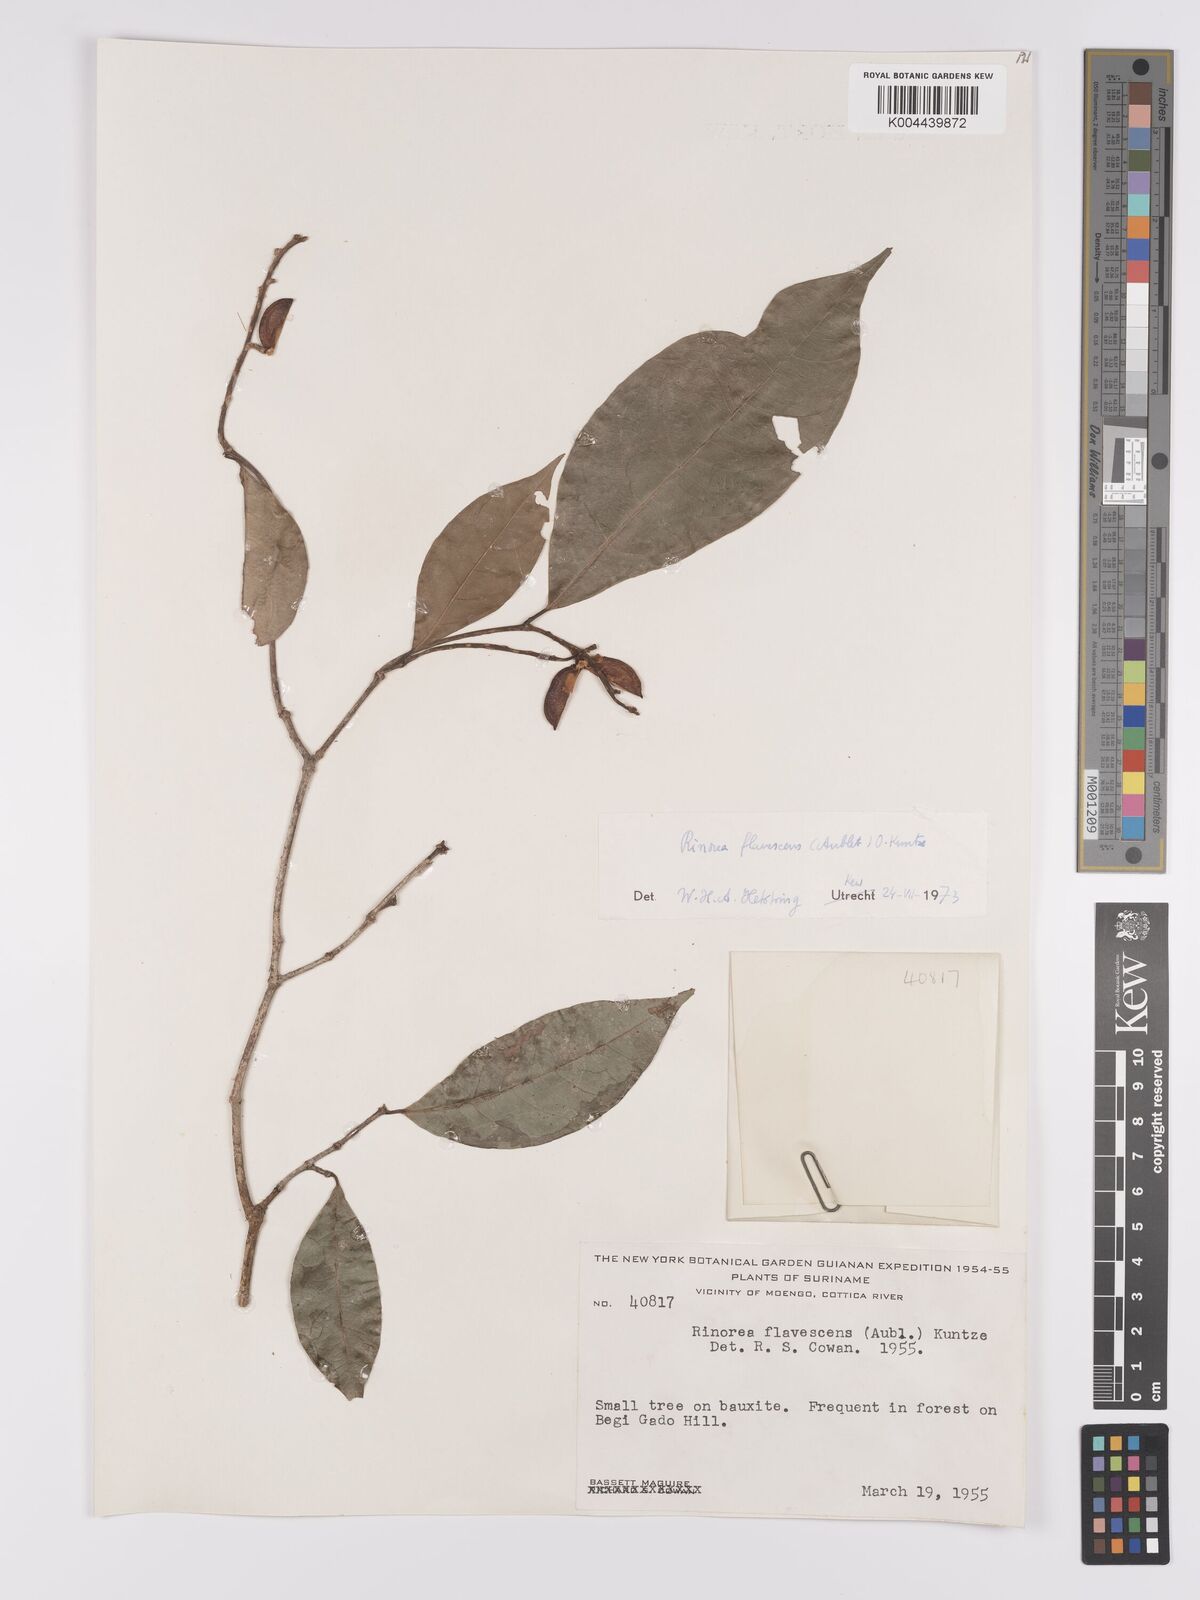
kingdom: Plantae
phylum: Tracheophyta
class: Magnoliopsida
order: Malpighiales
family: Violaceae
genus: Rinorea
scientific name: Rinorea flavescens
